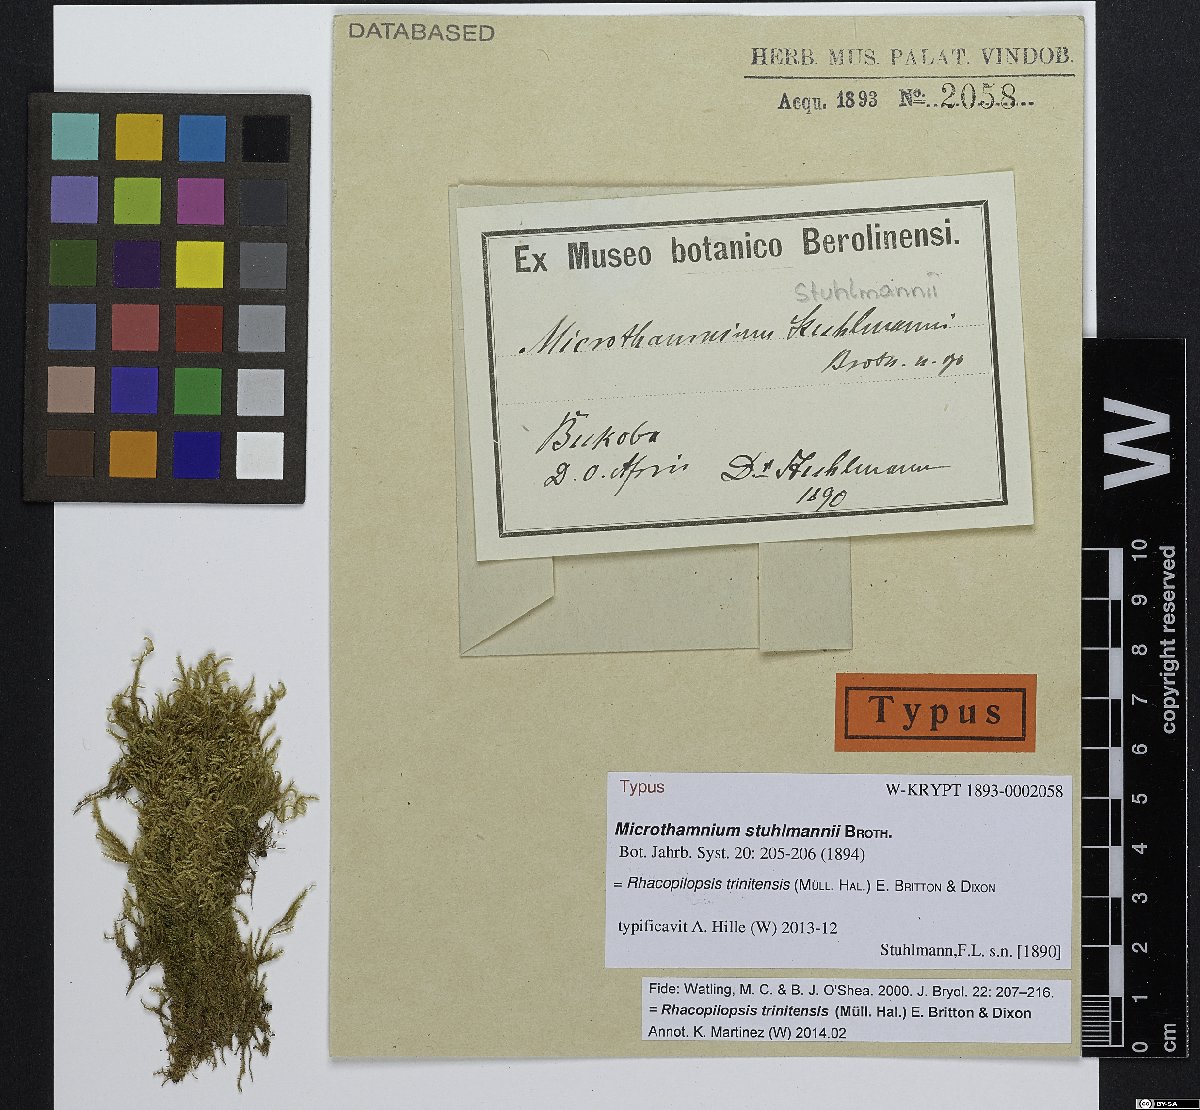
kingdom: Plantae
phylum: Bryophyta
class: Bryopsida
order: Hypnales
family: Hypnaceae
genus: Rhacopilopsis
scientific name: Rhacopilopsis trinitensis
